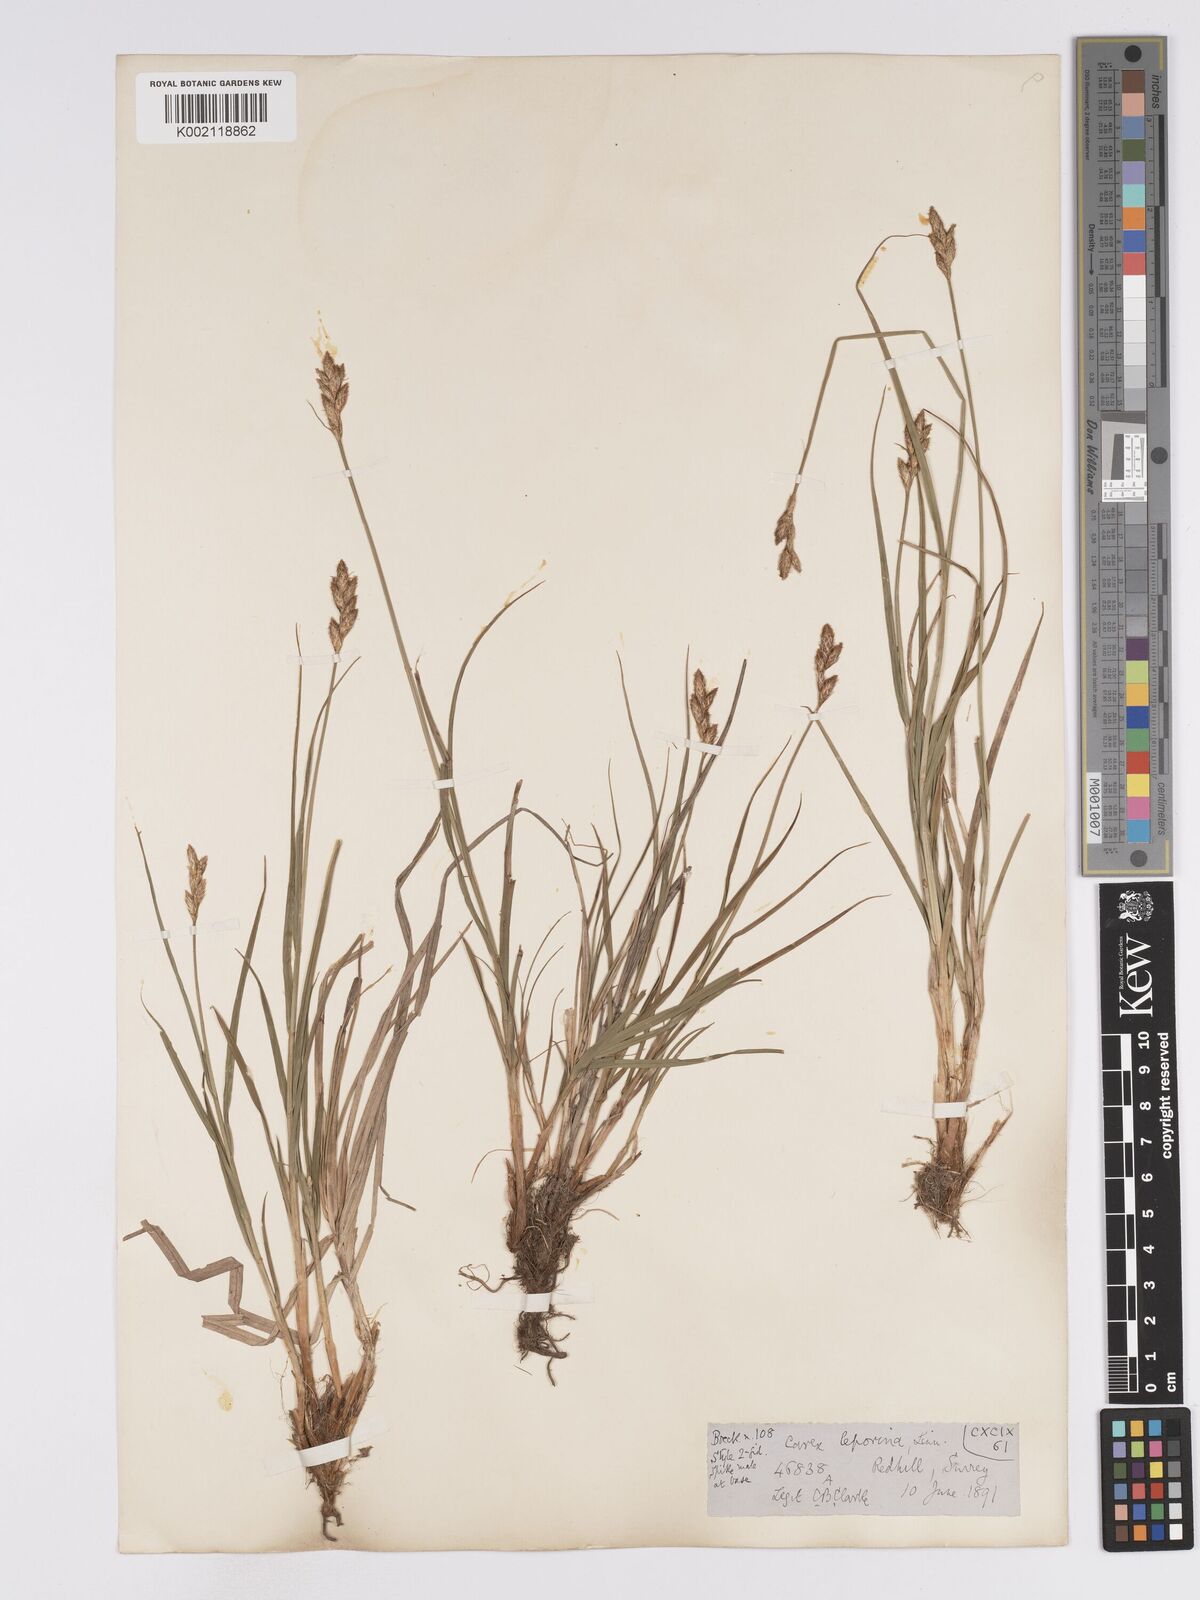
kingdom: Plantae
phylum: Tracheophyta
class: Liliopsida
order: Poales
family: Cyperaceae
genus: Carex
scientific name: Carex leporina
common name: Oval sedge
